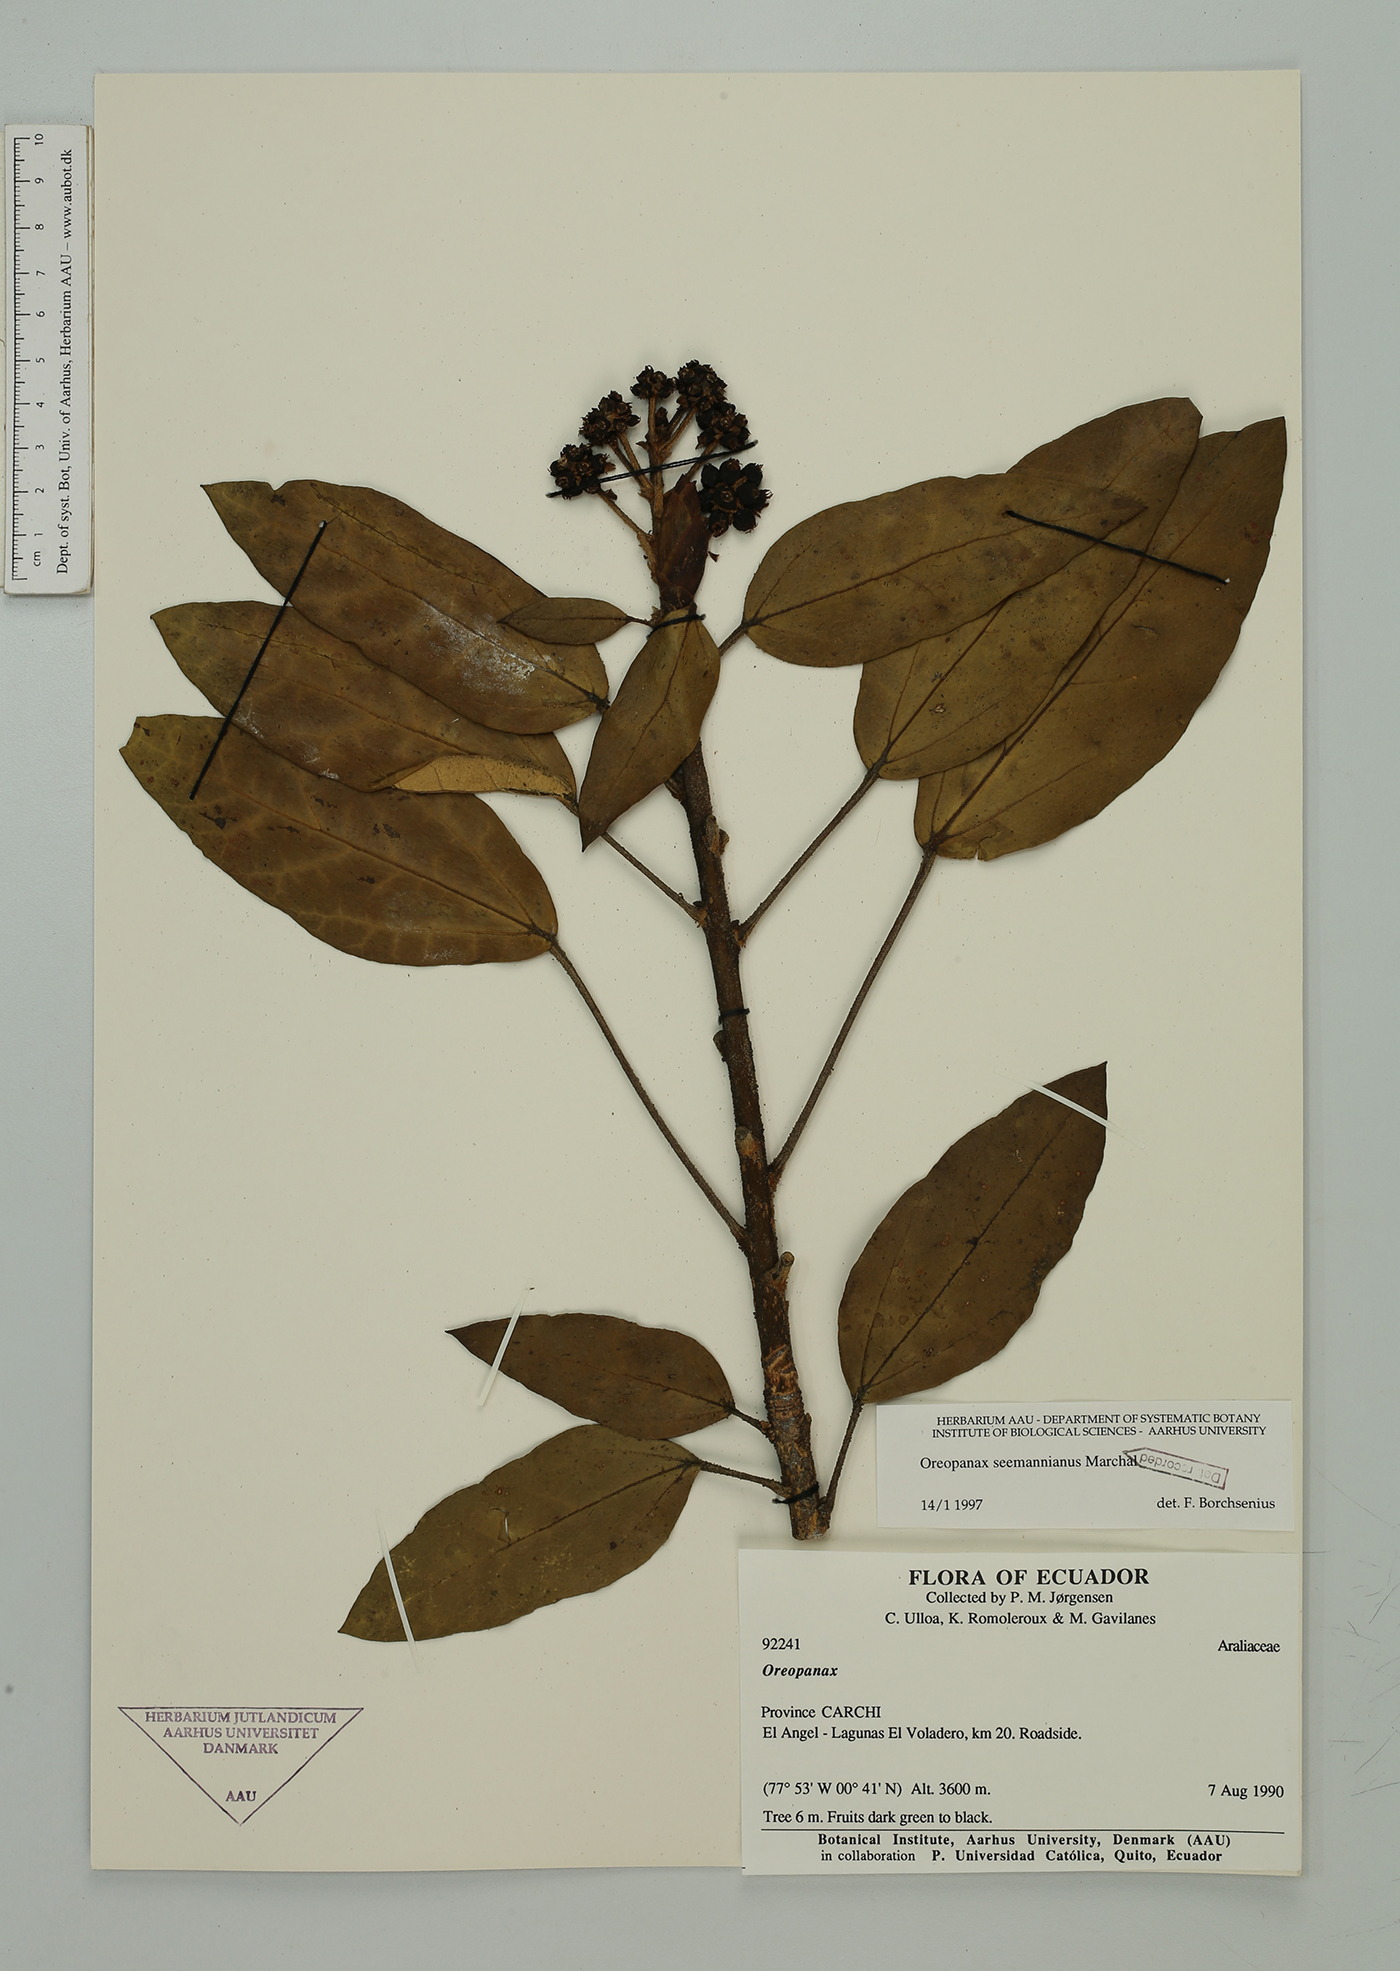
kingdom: Plantae
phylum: Tracheophyta
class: Magnoliopsida
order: Apiales
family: Araliaceae
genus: Oreopanax
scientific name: Oreopanax seemannianus
